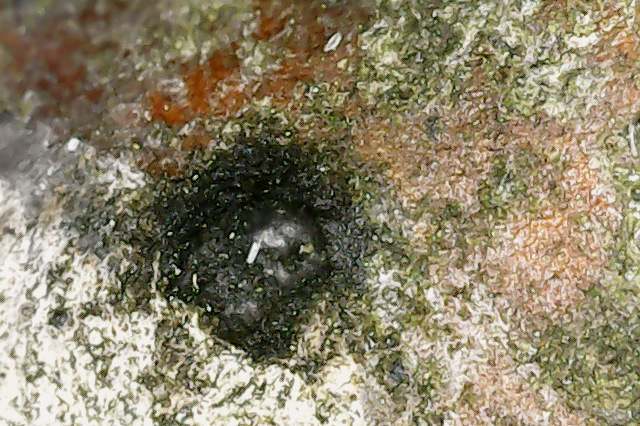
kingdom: Fungi
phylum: Ascomycota
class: Sordariomycetes
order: Diaporthales
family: Melanconidaceae
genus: Melanconium
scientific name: Melanconium castaneae
